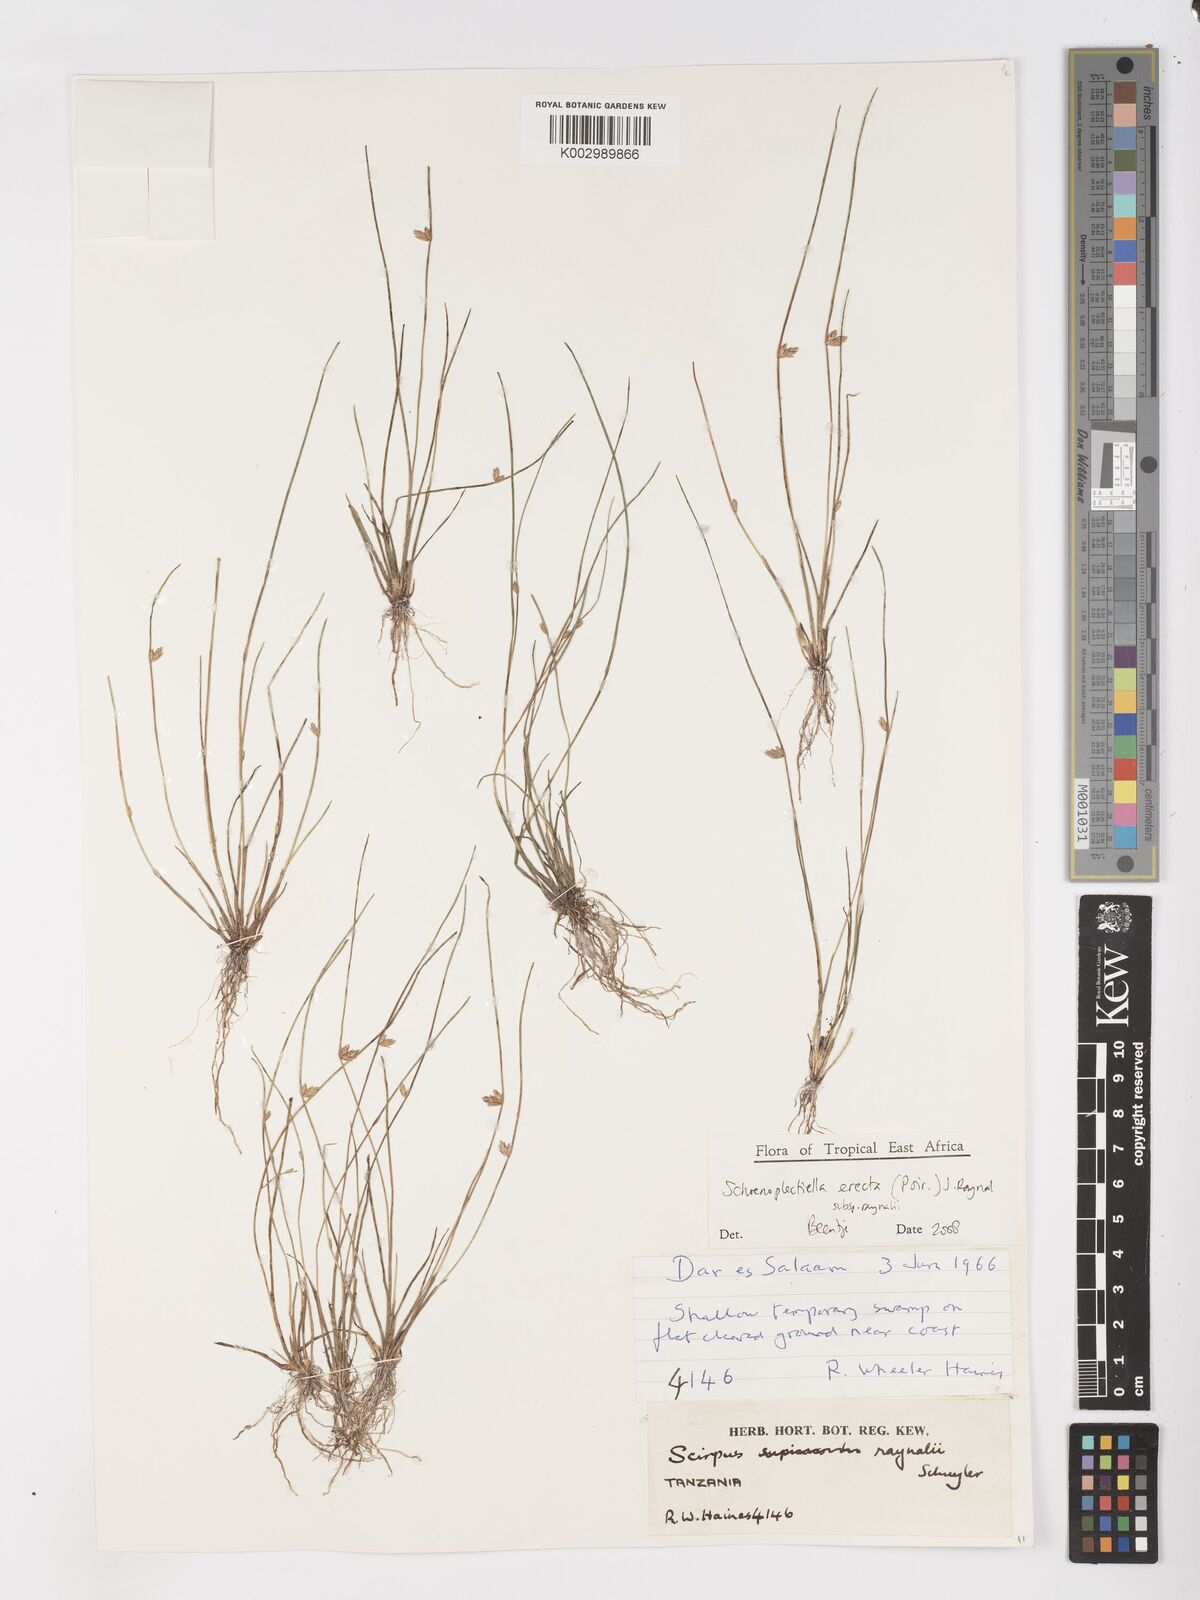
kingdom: Plantae
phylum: Tracheophyta
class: Liliopsida
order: Poales
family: Cyperaceae
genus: Schoenoplectiella
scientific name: Schoenoplectiella erecta
